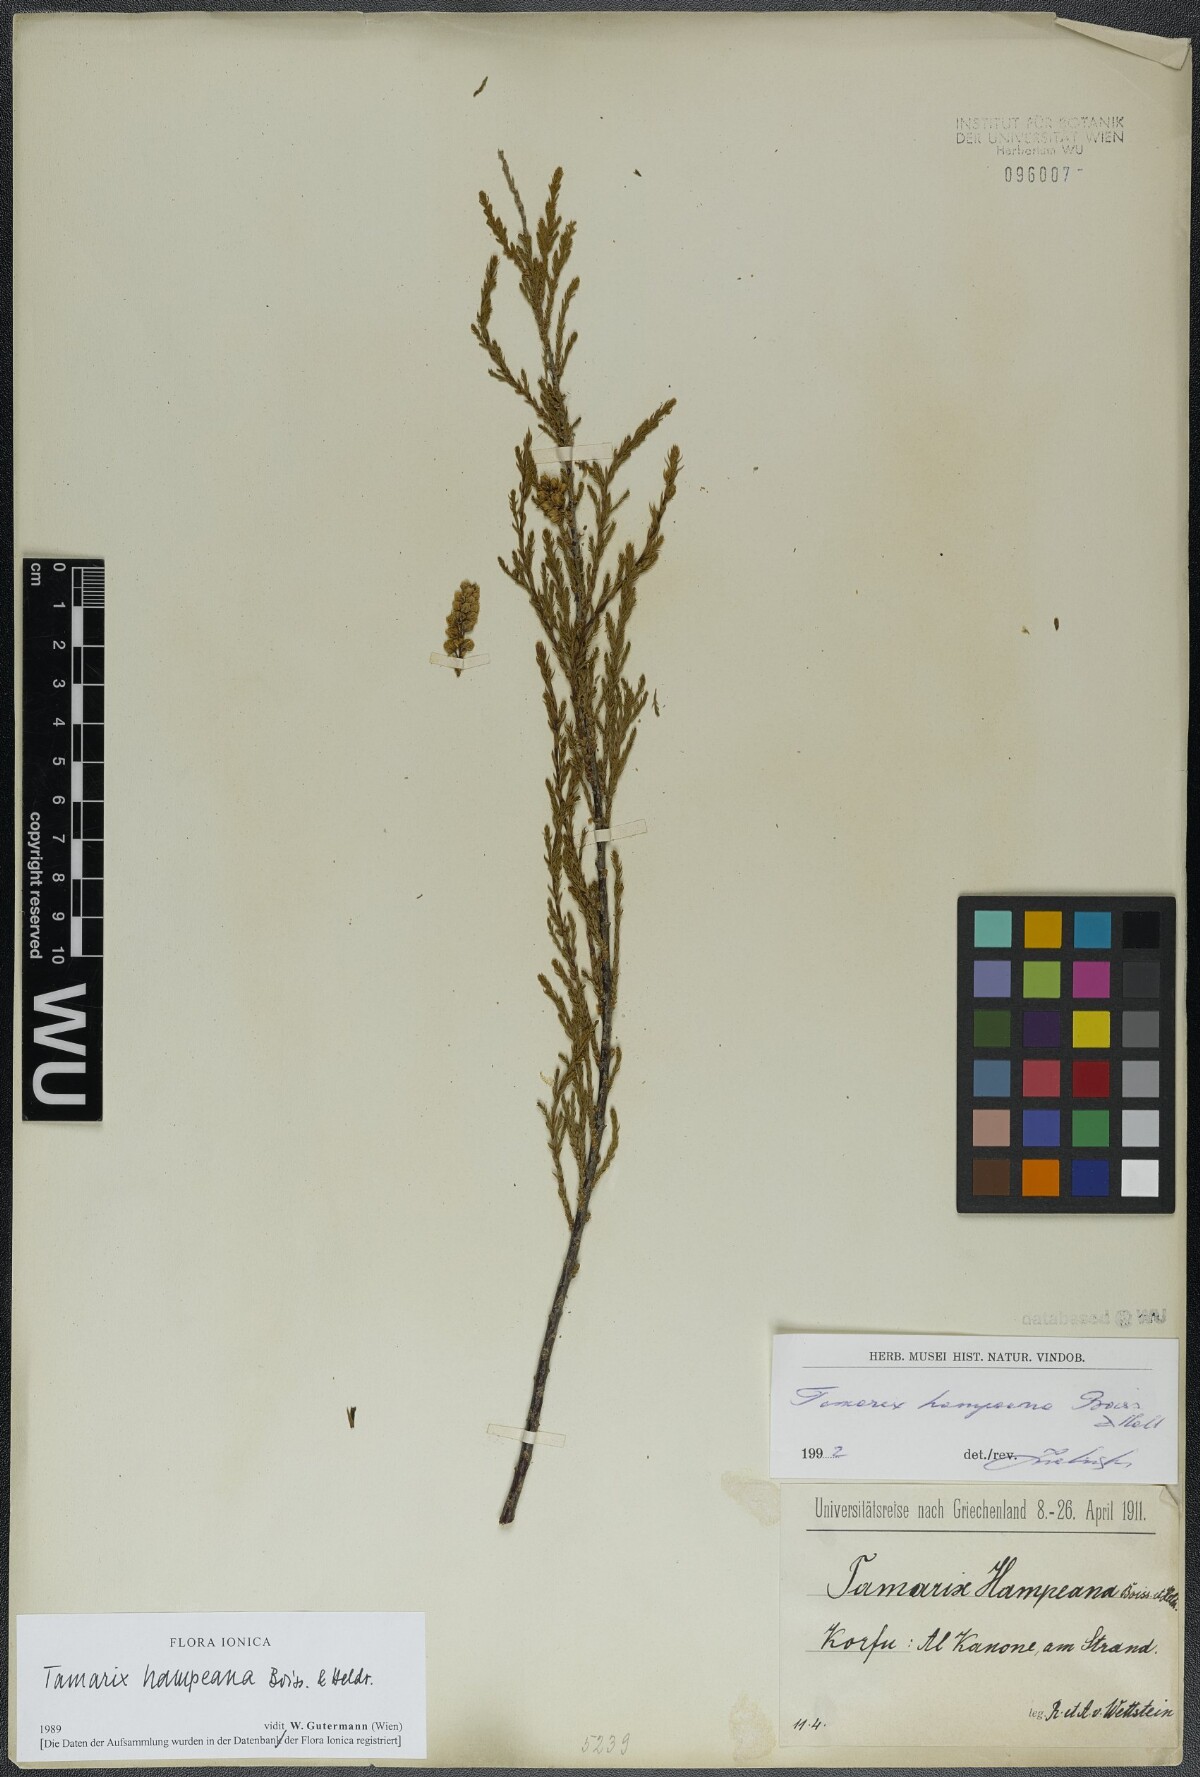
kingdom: Plantae
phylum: Tracheophyta
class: Magnoliopsida
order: Caryophyllales
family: Tamaricaceae
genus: Tamarix
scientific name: Tamarix hampeana
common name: Hampe’s tamarisk
